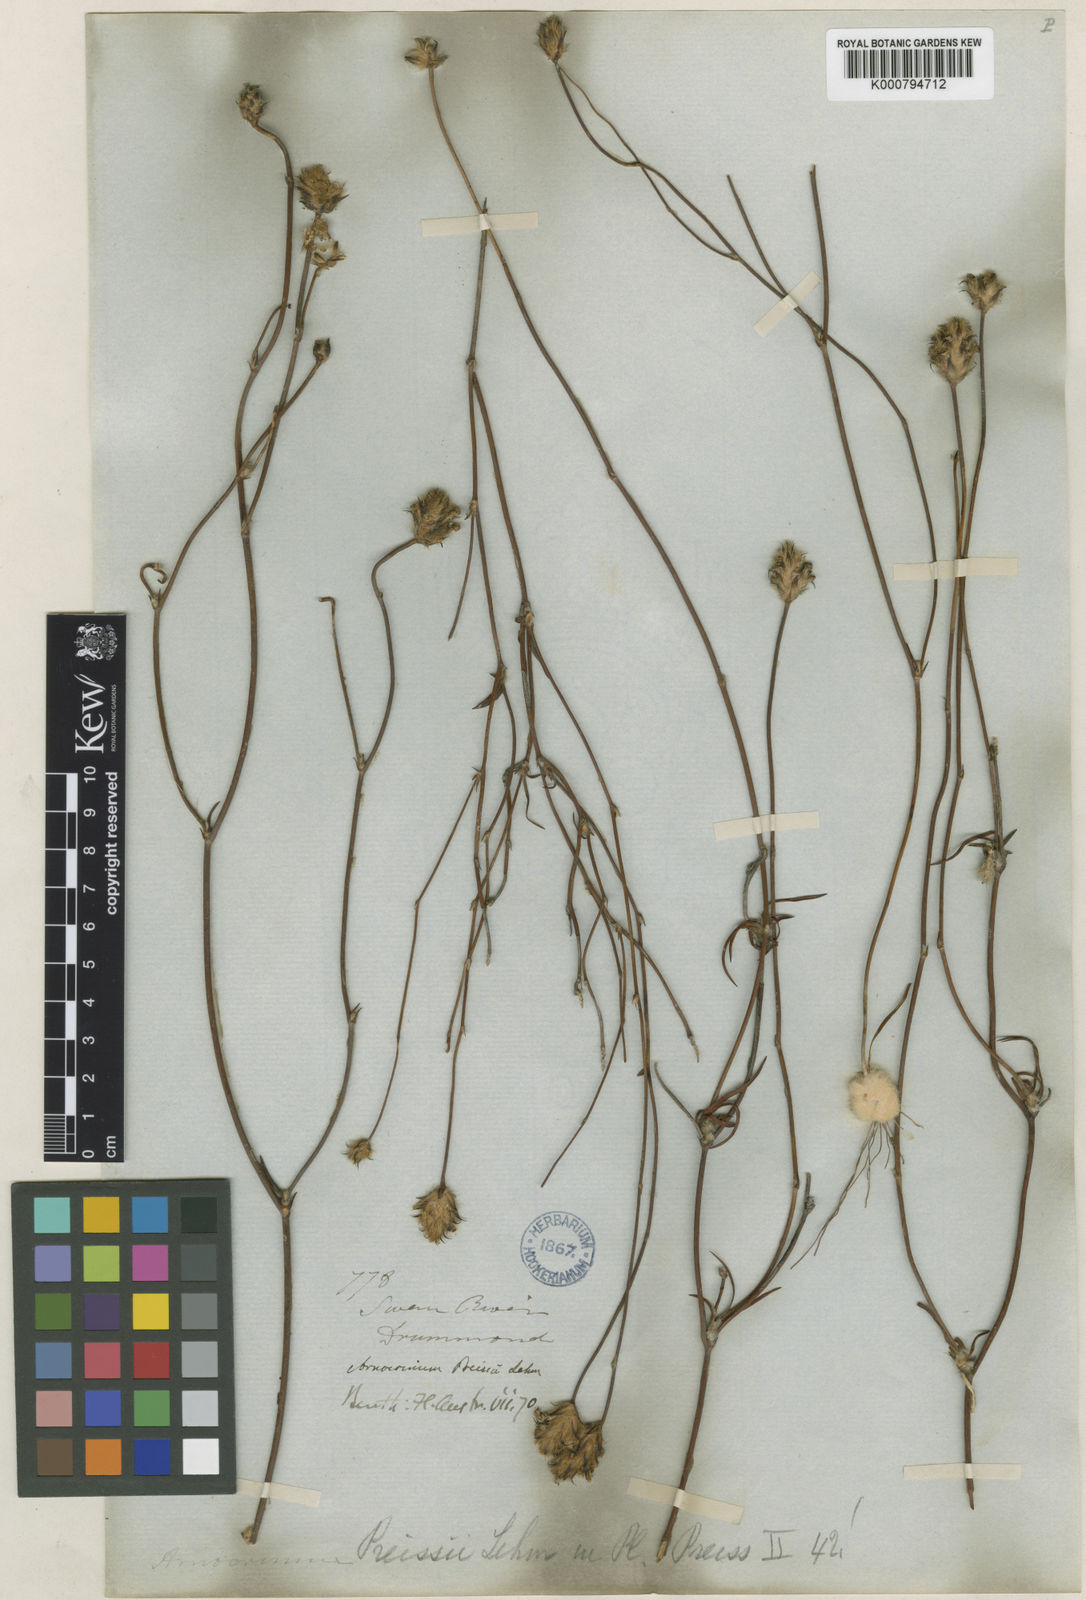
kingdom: Plantae
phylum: Tracheophyta
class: Liliopsida
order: Asparagales
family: Asphodelaceae
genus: Arnocrinum
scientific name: Arnocrinum preisii
